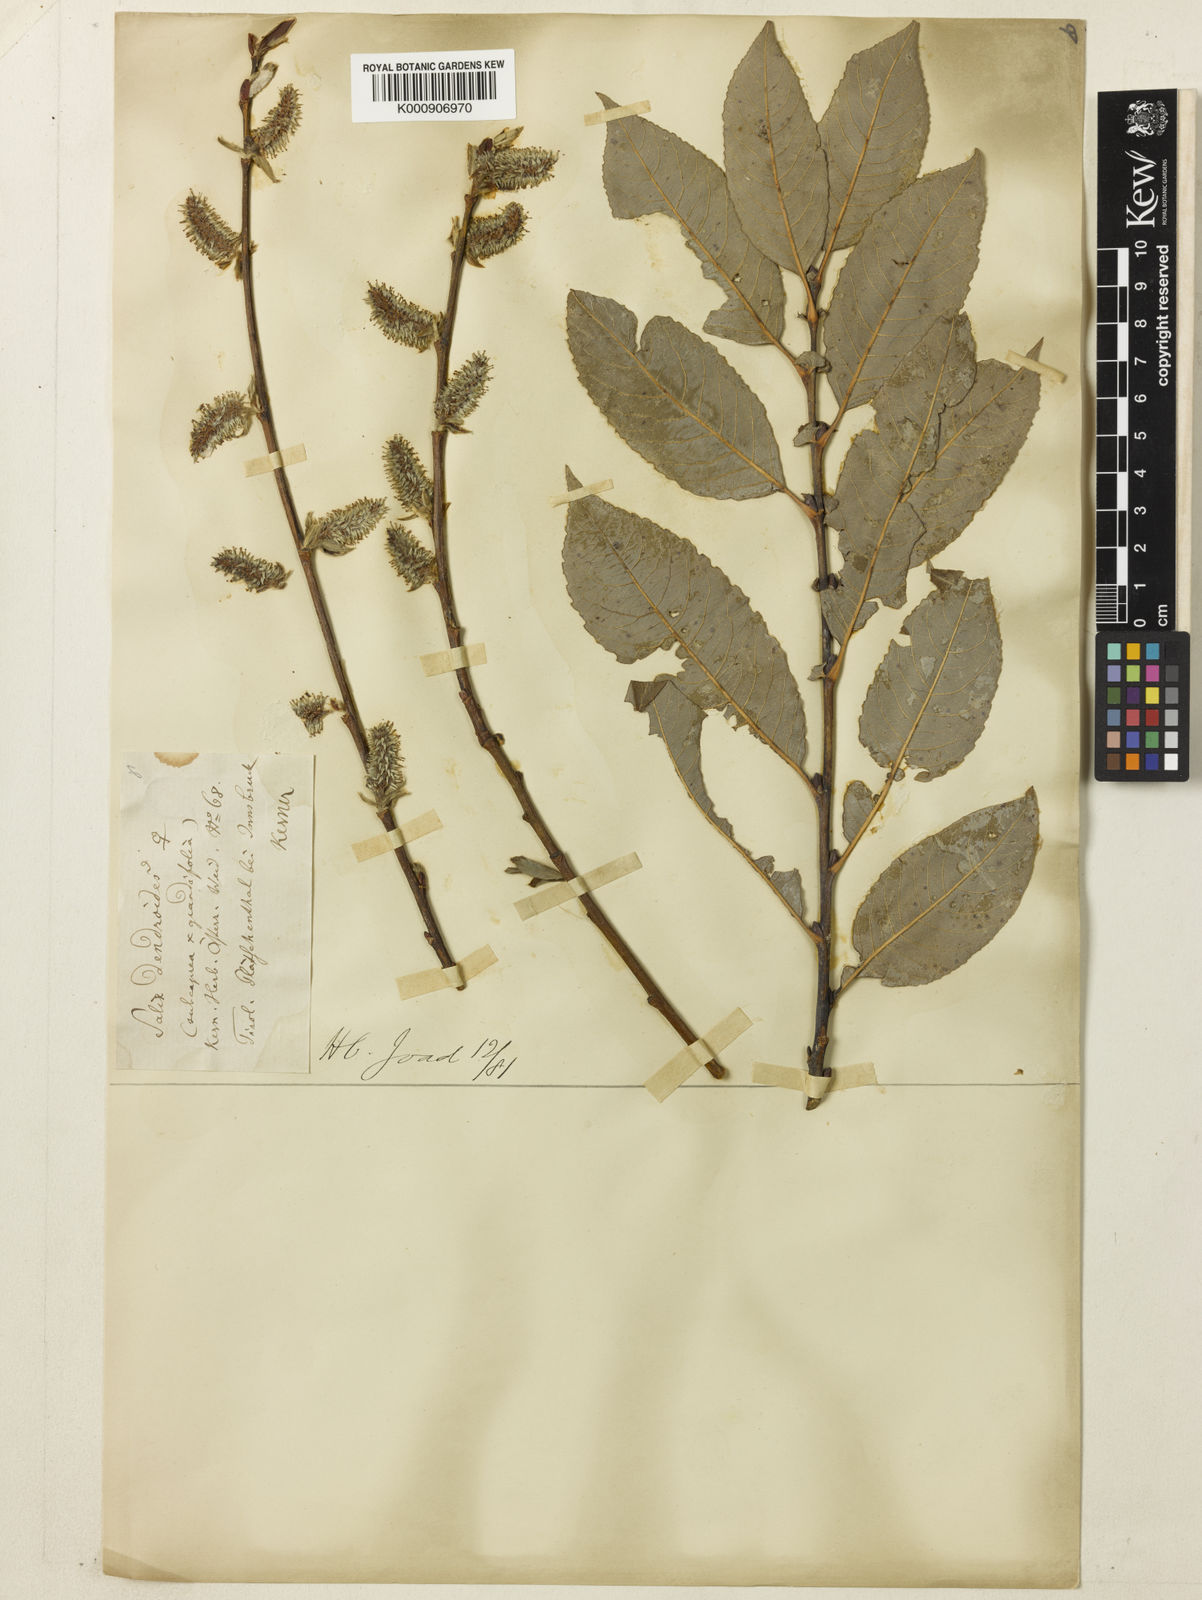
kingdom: Plantae
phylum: Tracheophyta
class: Magnoliopsida
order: Malpighiales
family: Salicaceae
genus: Salix
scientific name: Salix appendiculata
